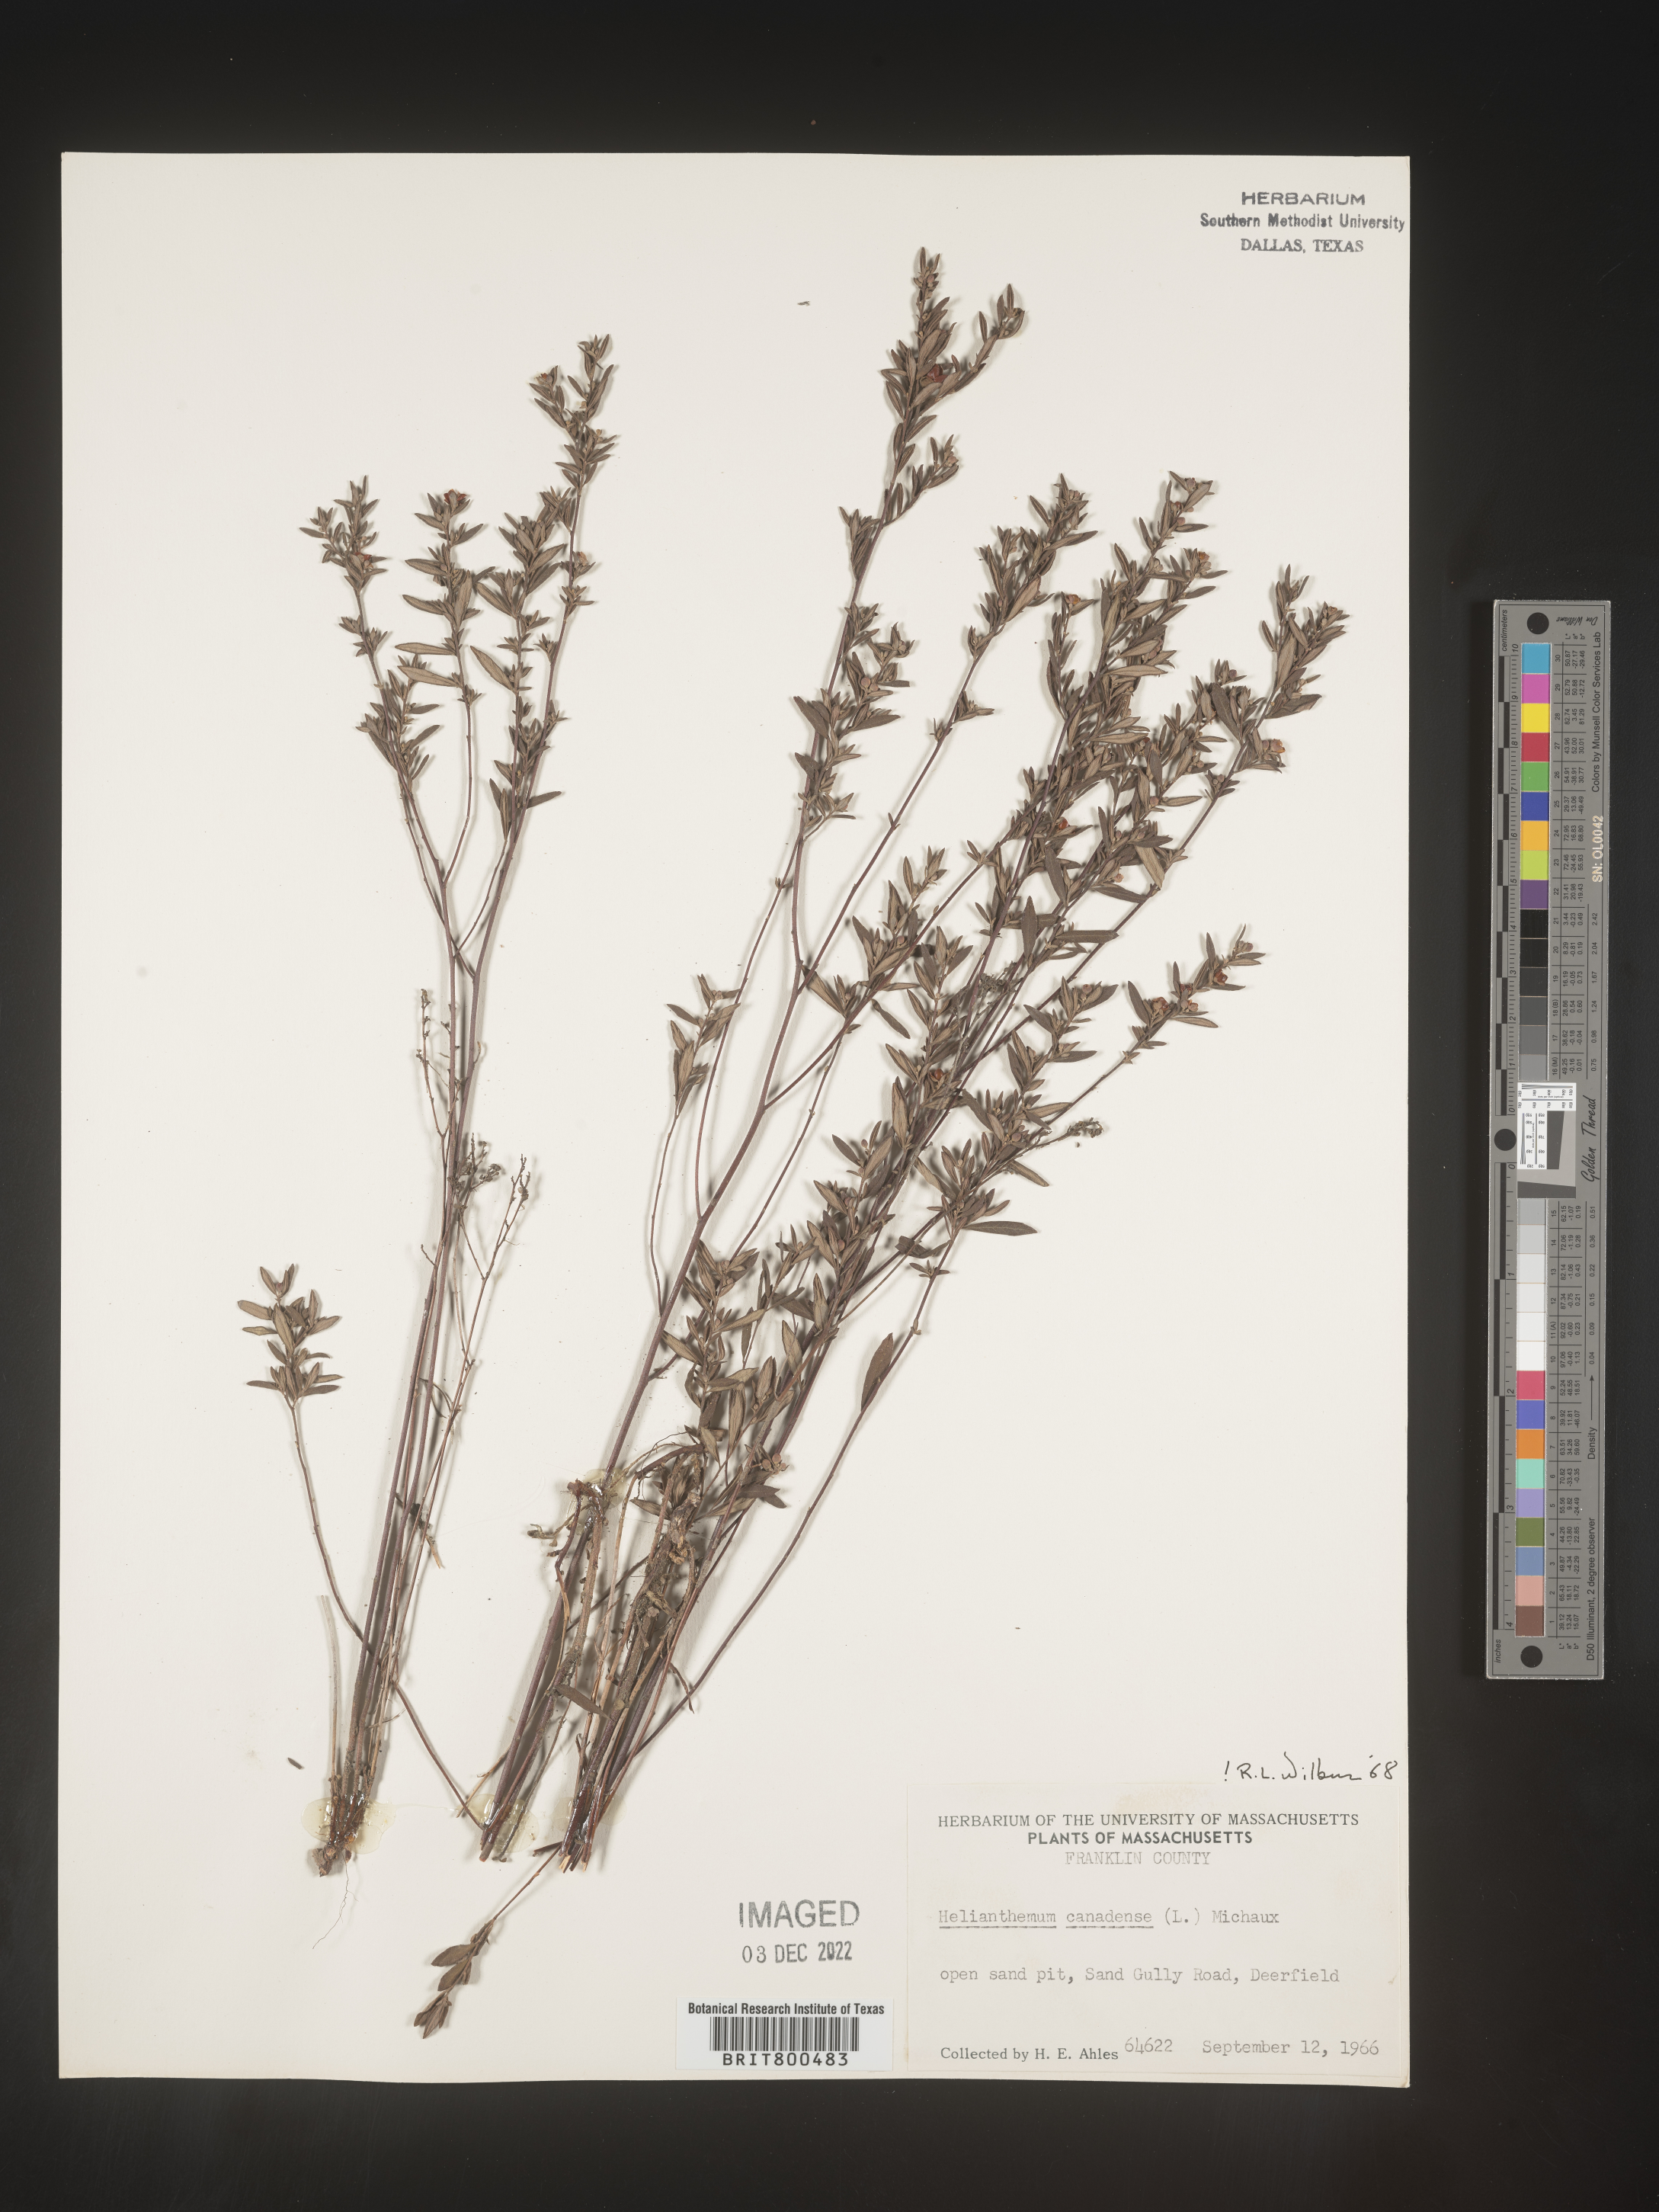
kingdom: Plantae
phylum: Tracheophyta
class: Magnoliopsida
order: Malvales
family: Cistaceae
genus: Crocanthemum
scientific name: Crocanthemum canadense
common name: Canada frostweed
